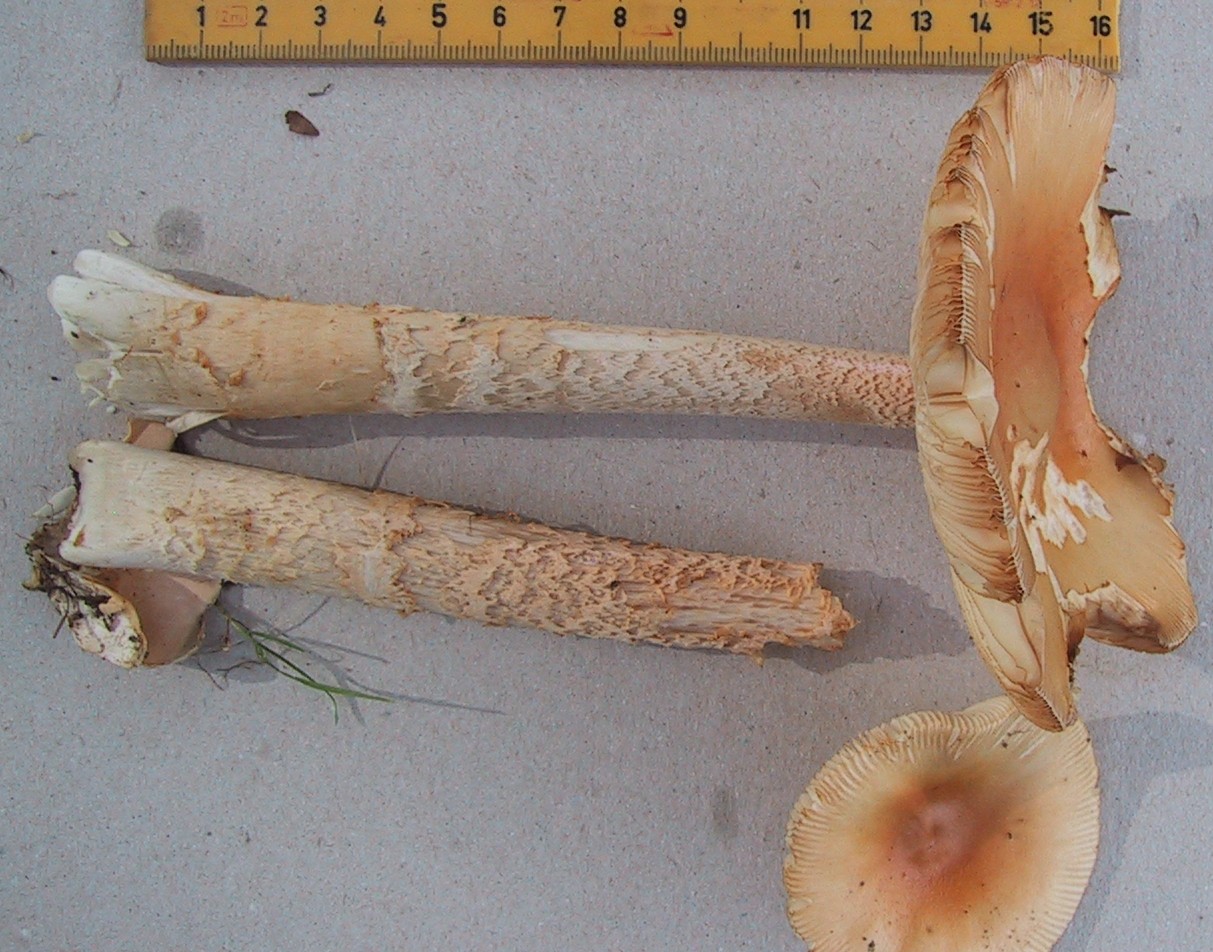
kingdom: Fungi
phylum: Basidiomycota
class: Agaricomycetes
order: Agaricales
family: Amanitaceae
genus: Amanita
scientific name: Amanita crocea
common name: gylden kam-fluesvamp
